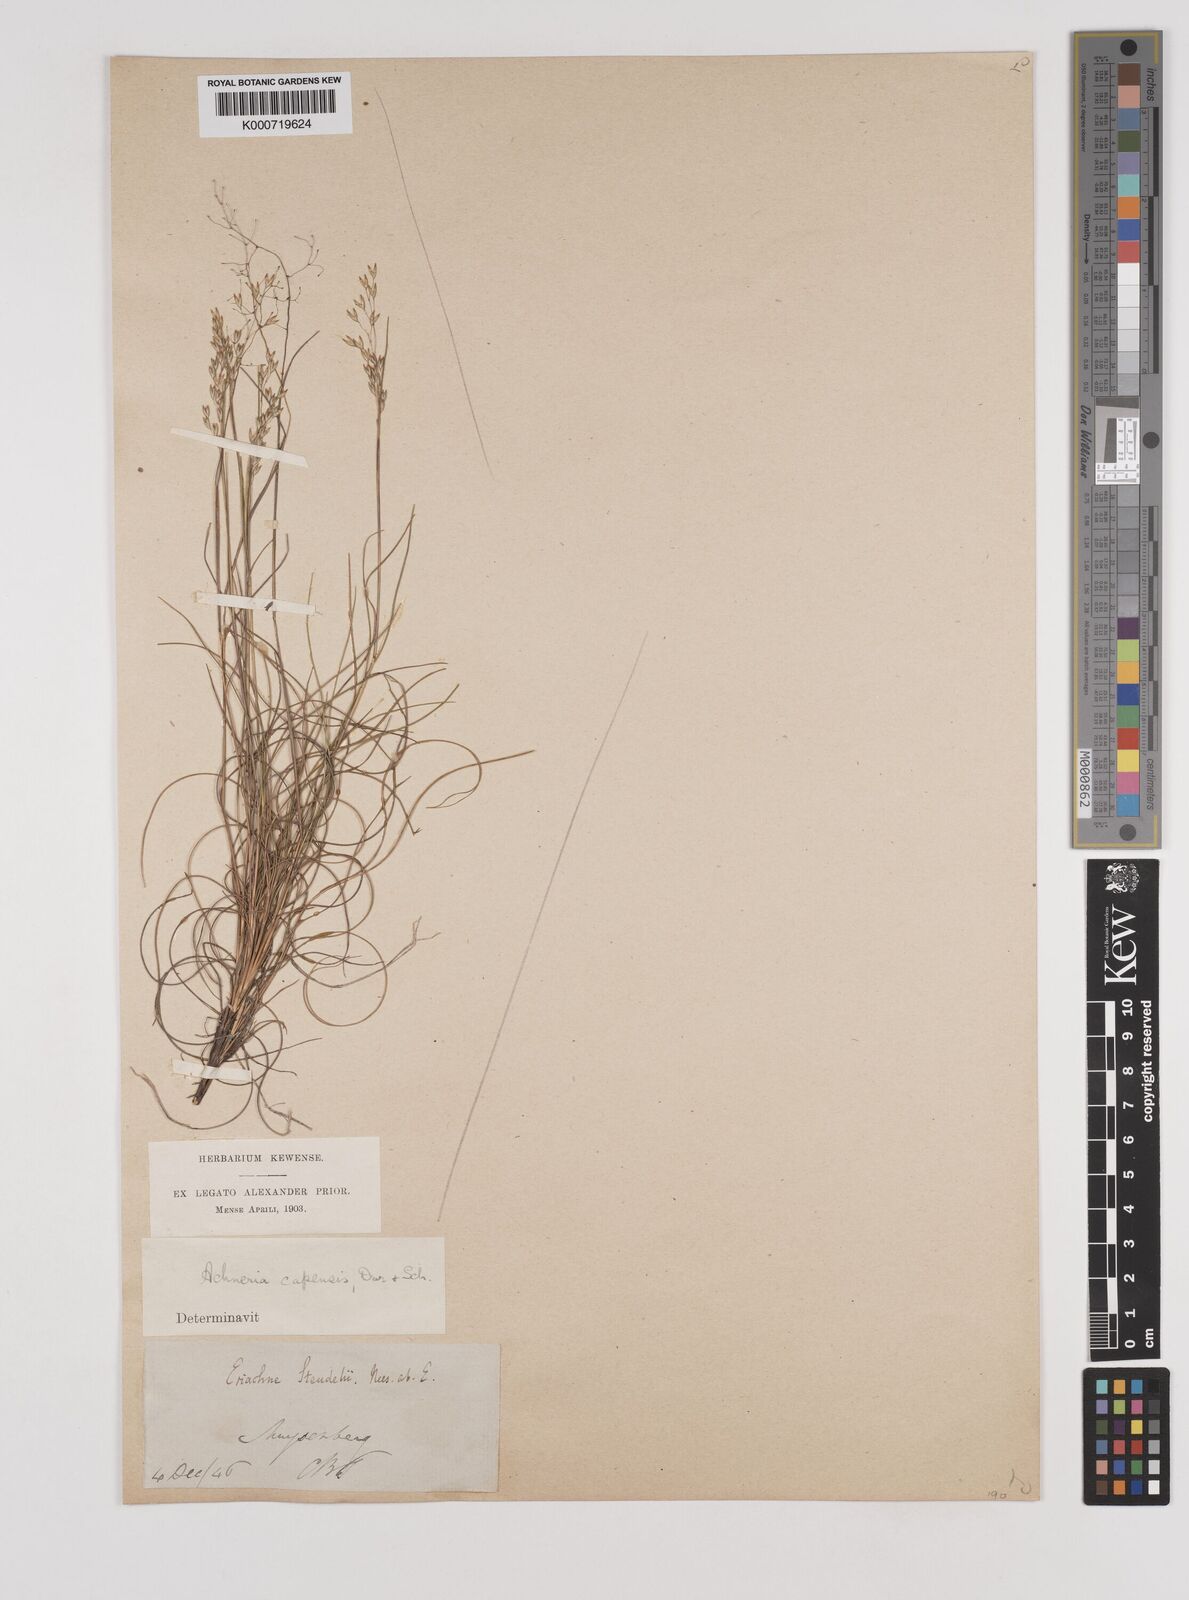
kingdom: Plantae
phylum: Tracheophyta
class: Liliopsida
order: Poales
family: Poaceae
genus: Pentameris
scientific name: Pentameris malouinensis
